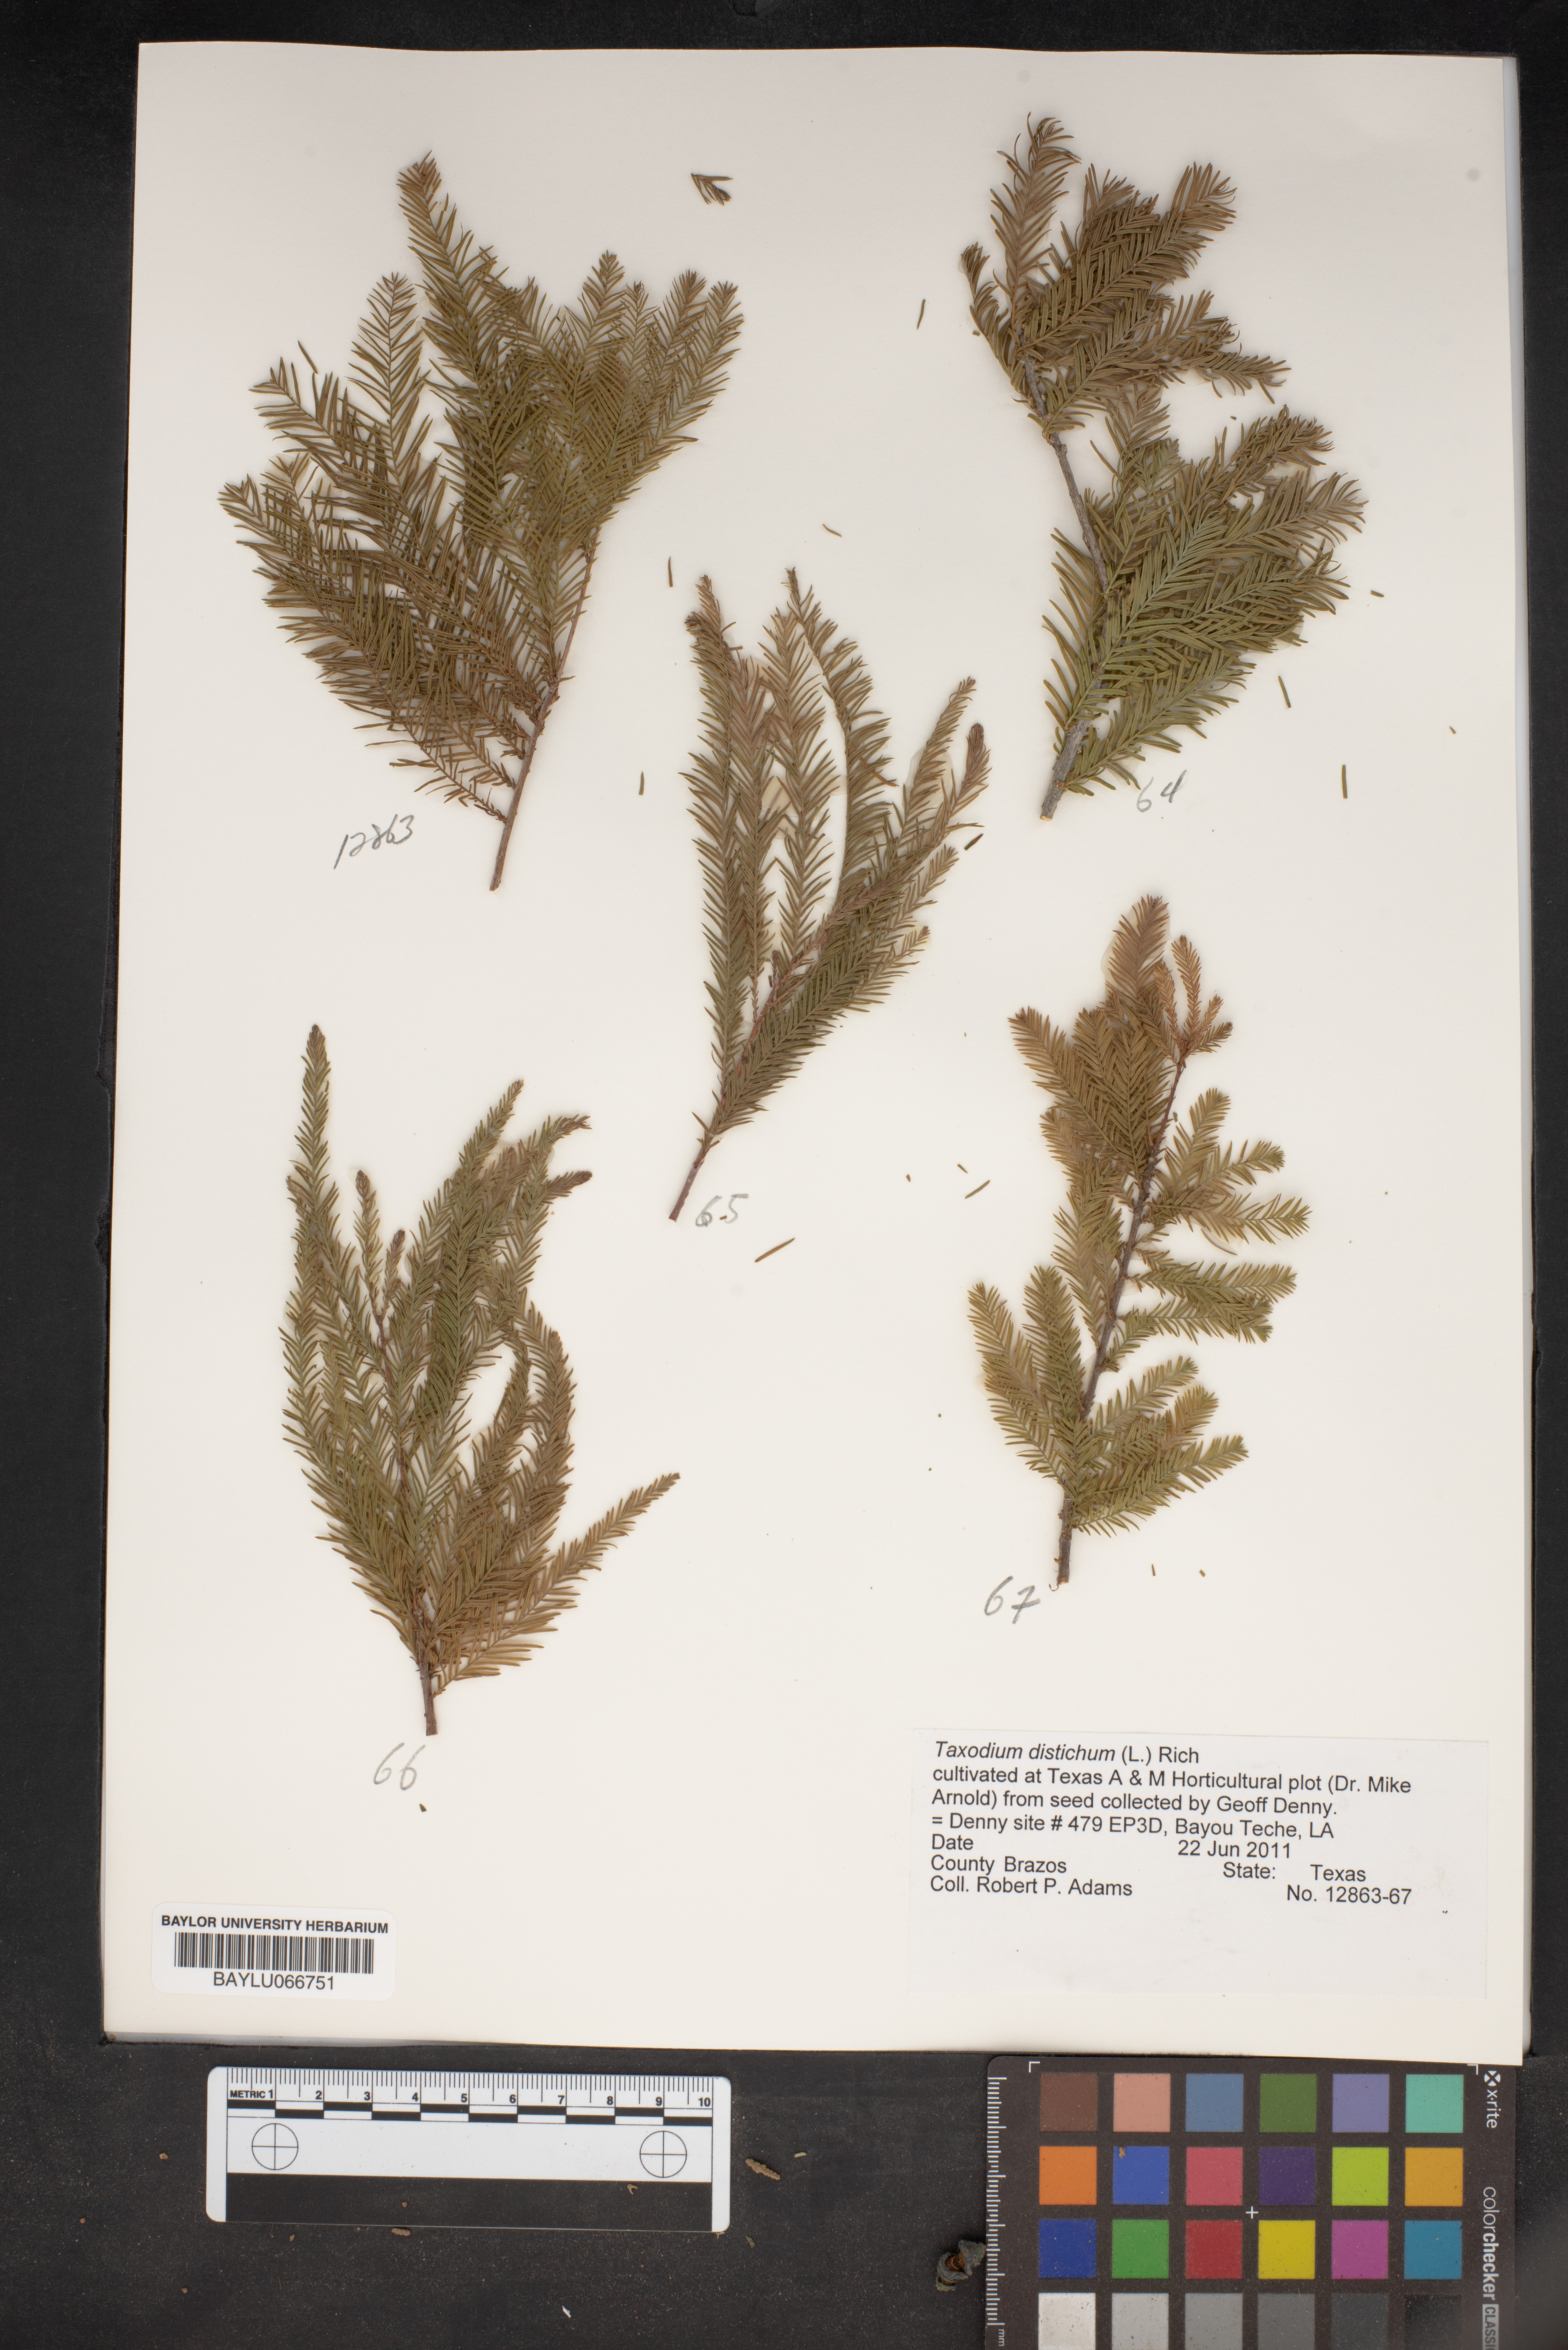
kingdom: Plantae
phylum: Tracheophyta
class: Pinopsida
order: Pinales
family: Cupressaceae
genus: Taxodium
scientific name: Taxodium distichum
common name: Bald cypress
